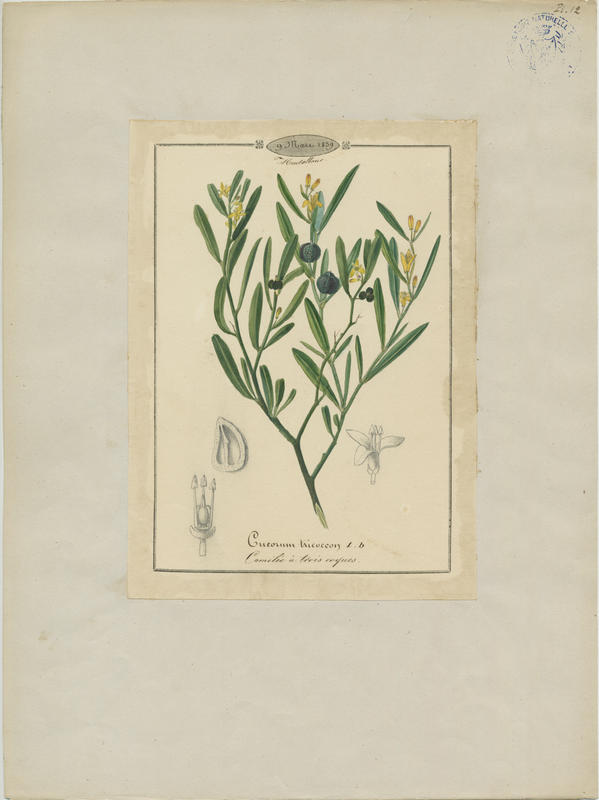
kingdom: Plantae
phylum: Tracheophyta
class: Magnoliopsida
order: Sapindales
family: Rutaceae
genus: Cneorum
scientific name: Cneorum tricoccon
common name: Spurge olive
